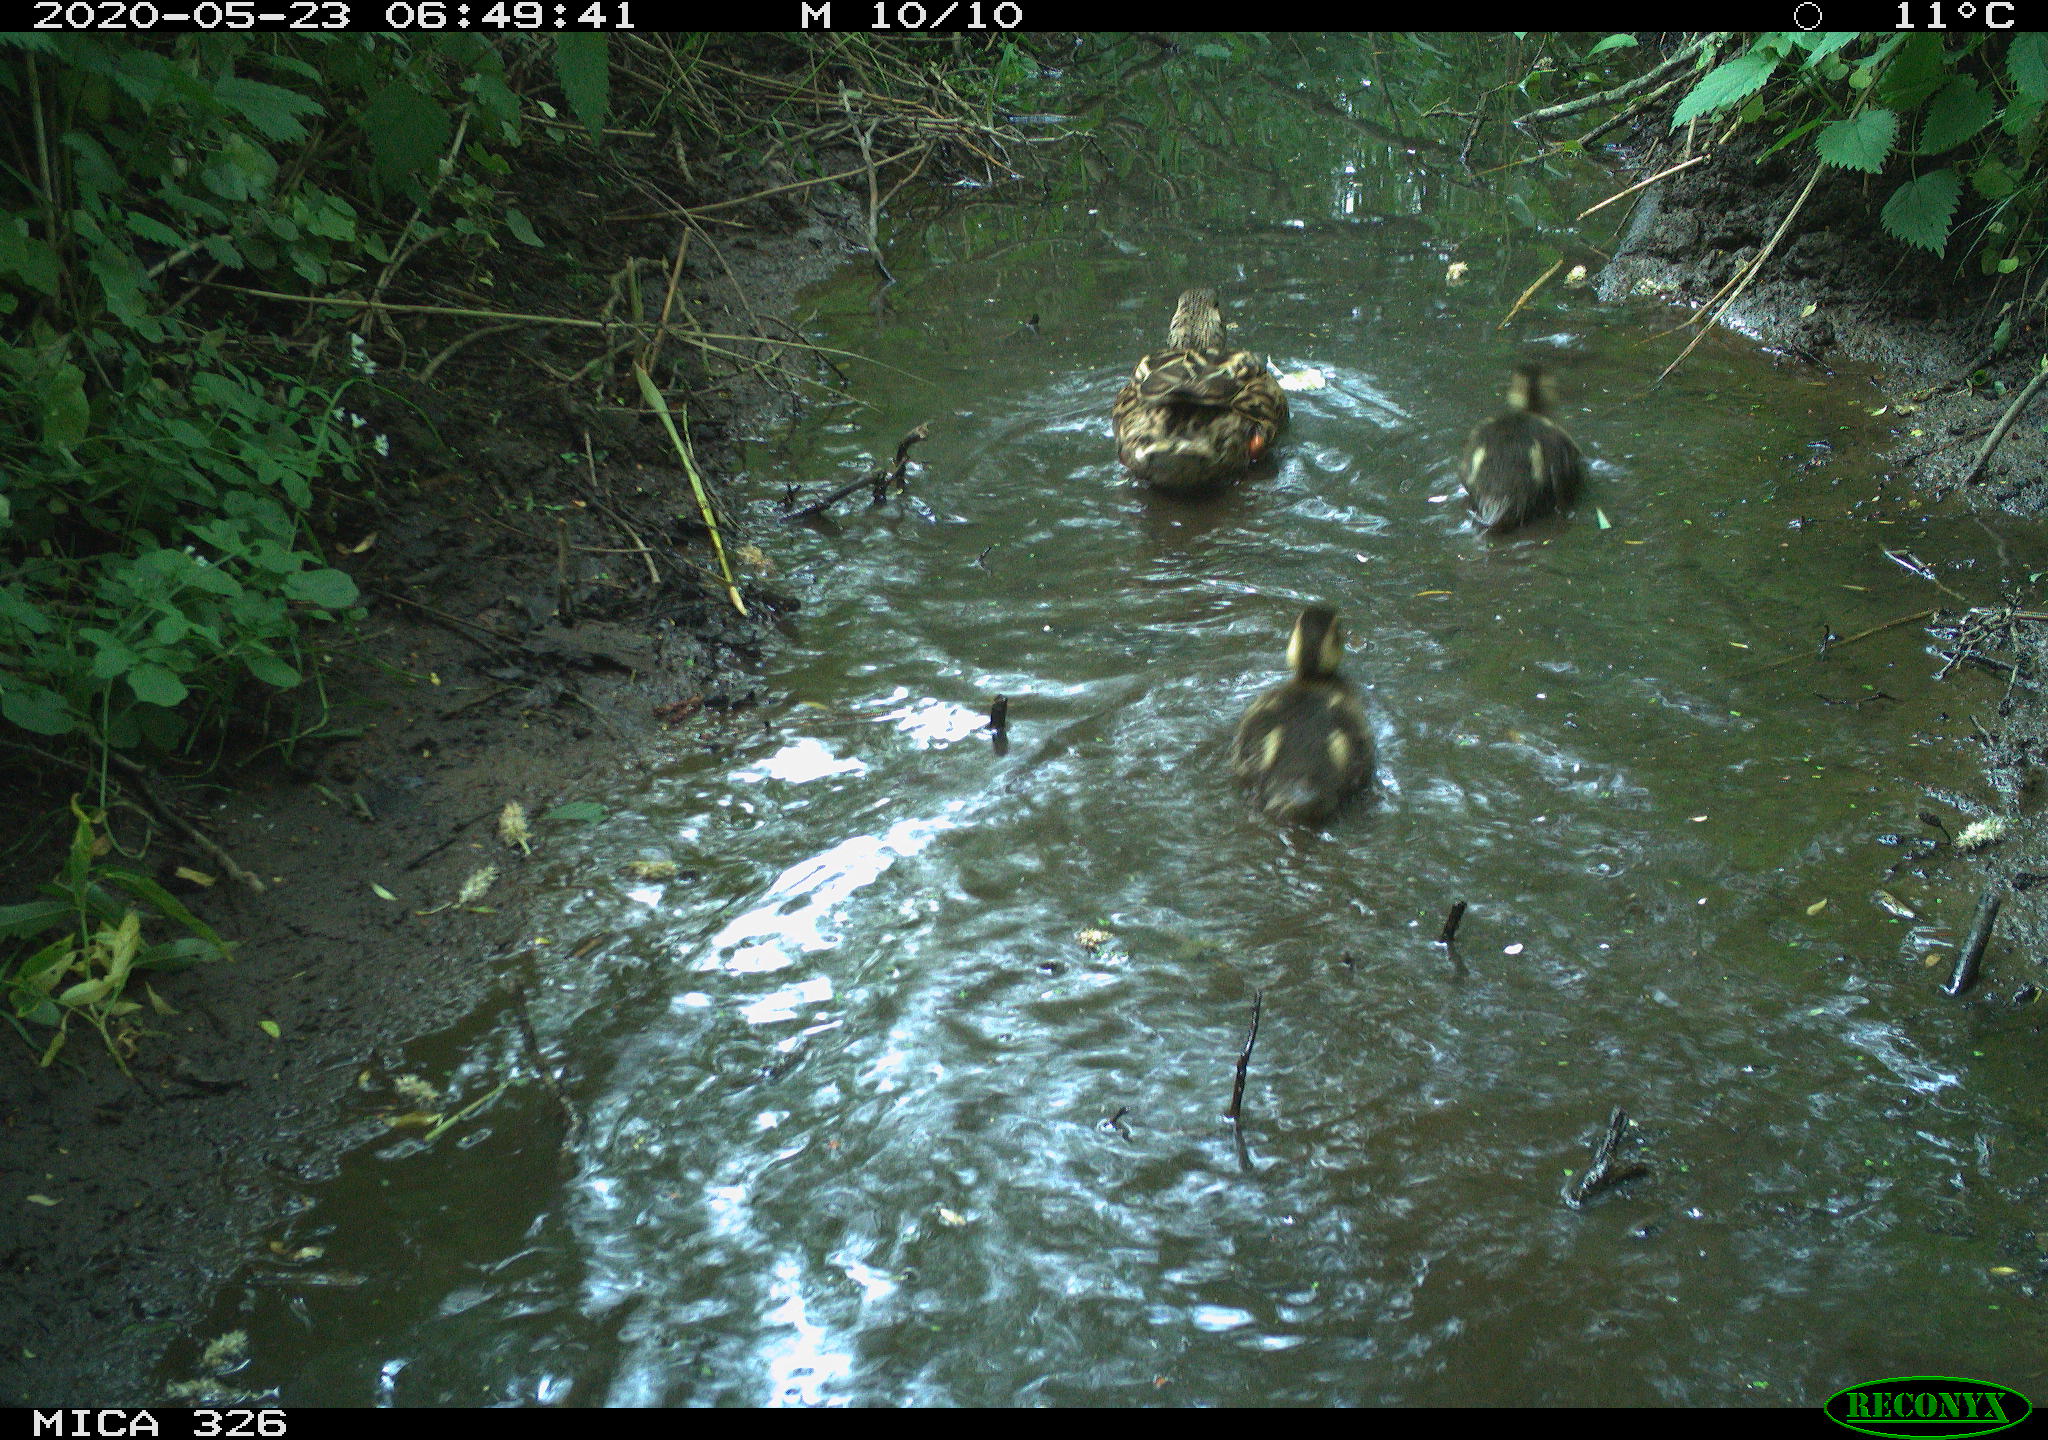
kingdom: Animalia
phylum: Chordata
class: Aves
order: Anseriformes
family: Anatidae
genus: Anas
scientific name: Anas platyrhynchos
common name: Mallard
